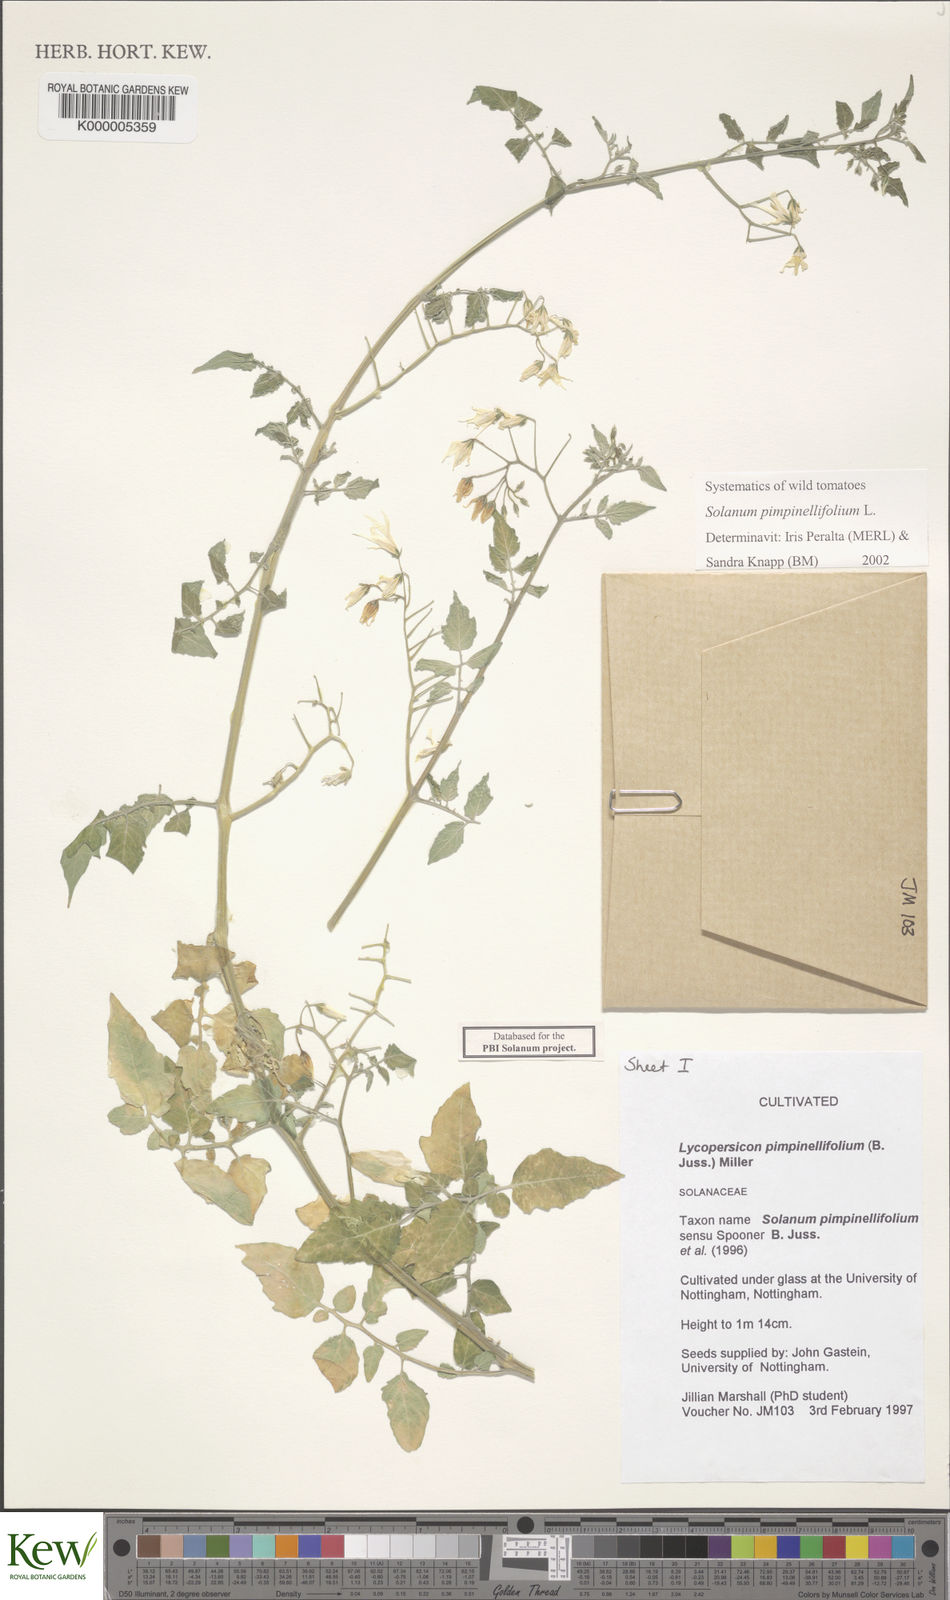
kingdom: Plantae
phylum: Tracheophyta
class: Magnoliopsida
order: Solanales
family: Solanaceae
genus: Solanum
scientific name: Solanum pimpinellifolium
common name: Currant-tomato
